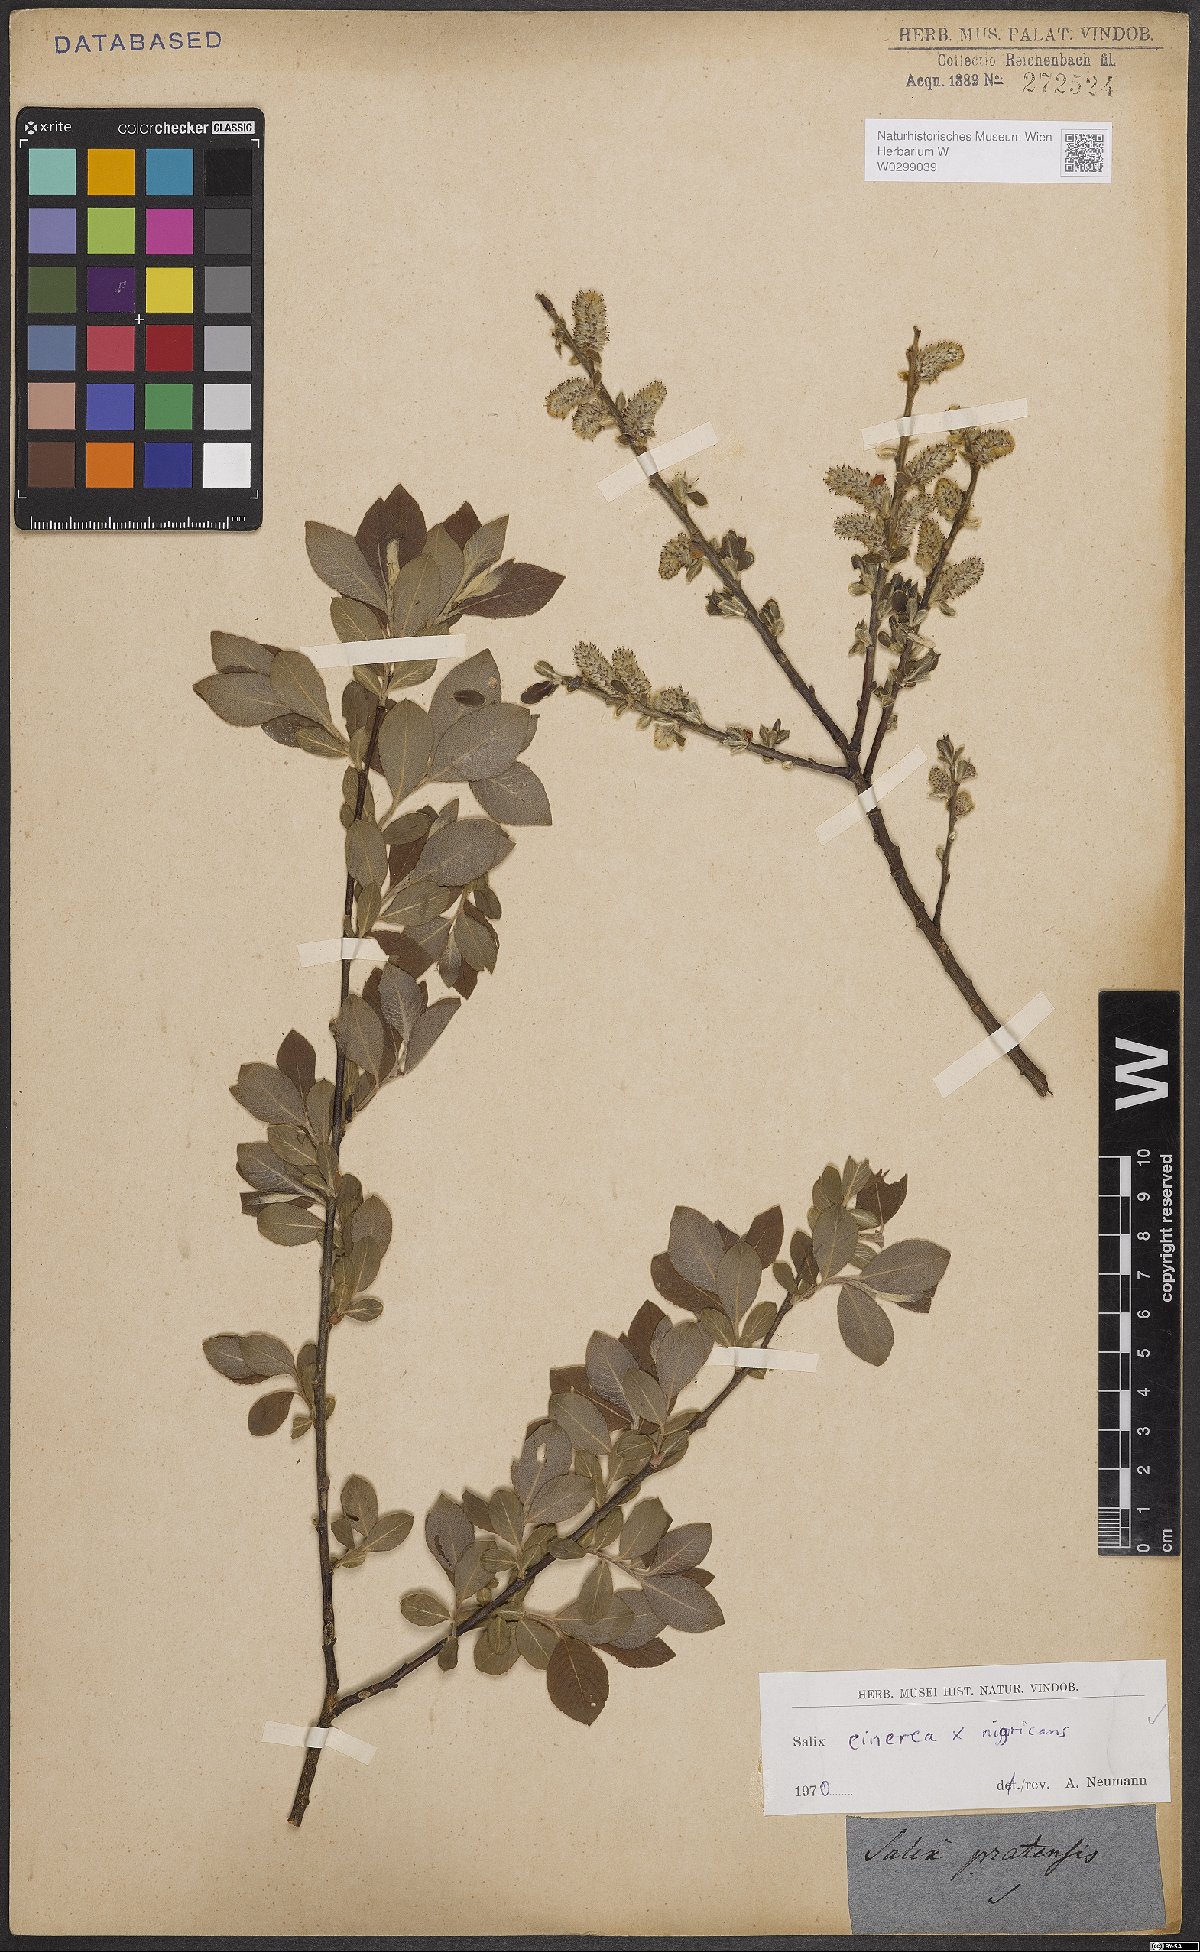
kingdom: Plantae
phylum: Tracheophyta
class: Magnoliopsida
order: Malpighiales
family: Salicaceae
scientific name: Salicaceae
